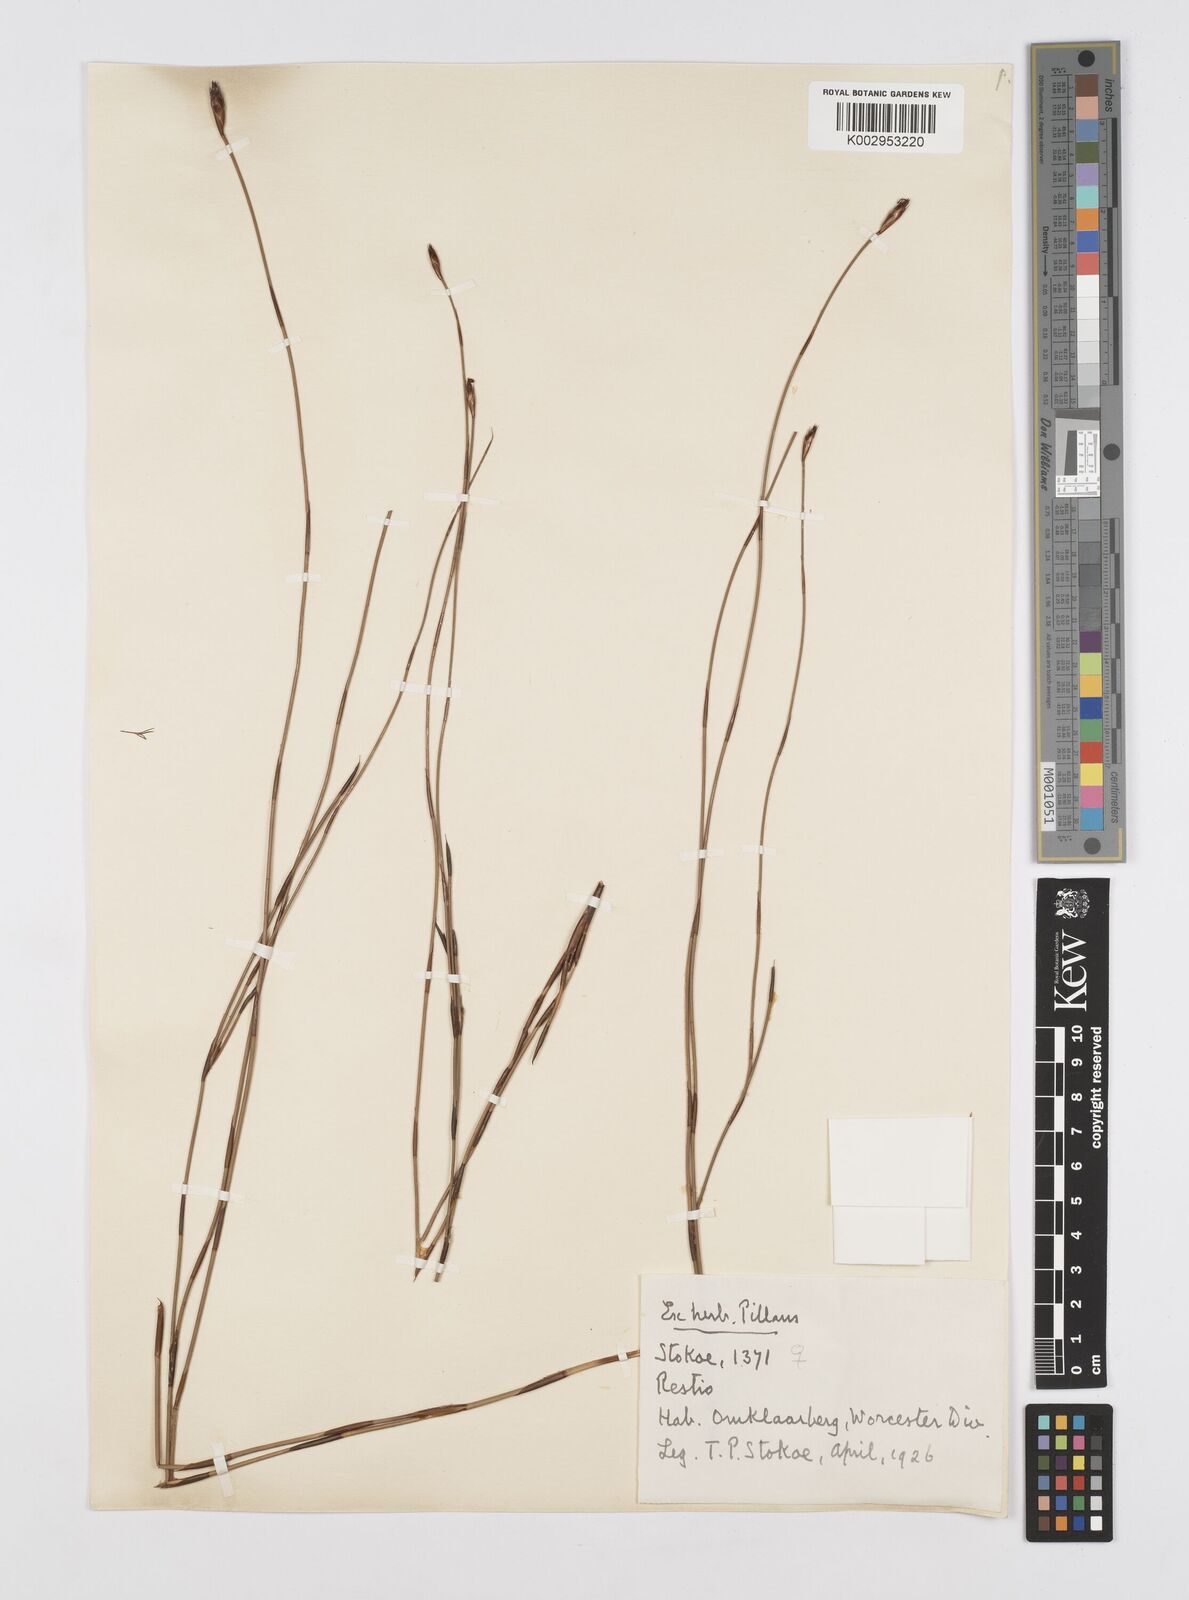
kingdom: Plantae
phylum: Tracheophyta
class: Liliopsida
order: Poales
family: Restionaceae
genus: Restio
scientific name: Restio
